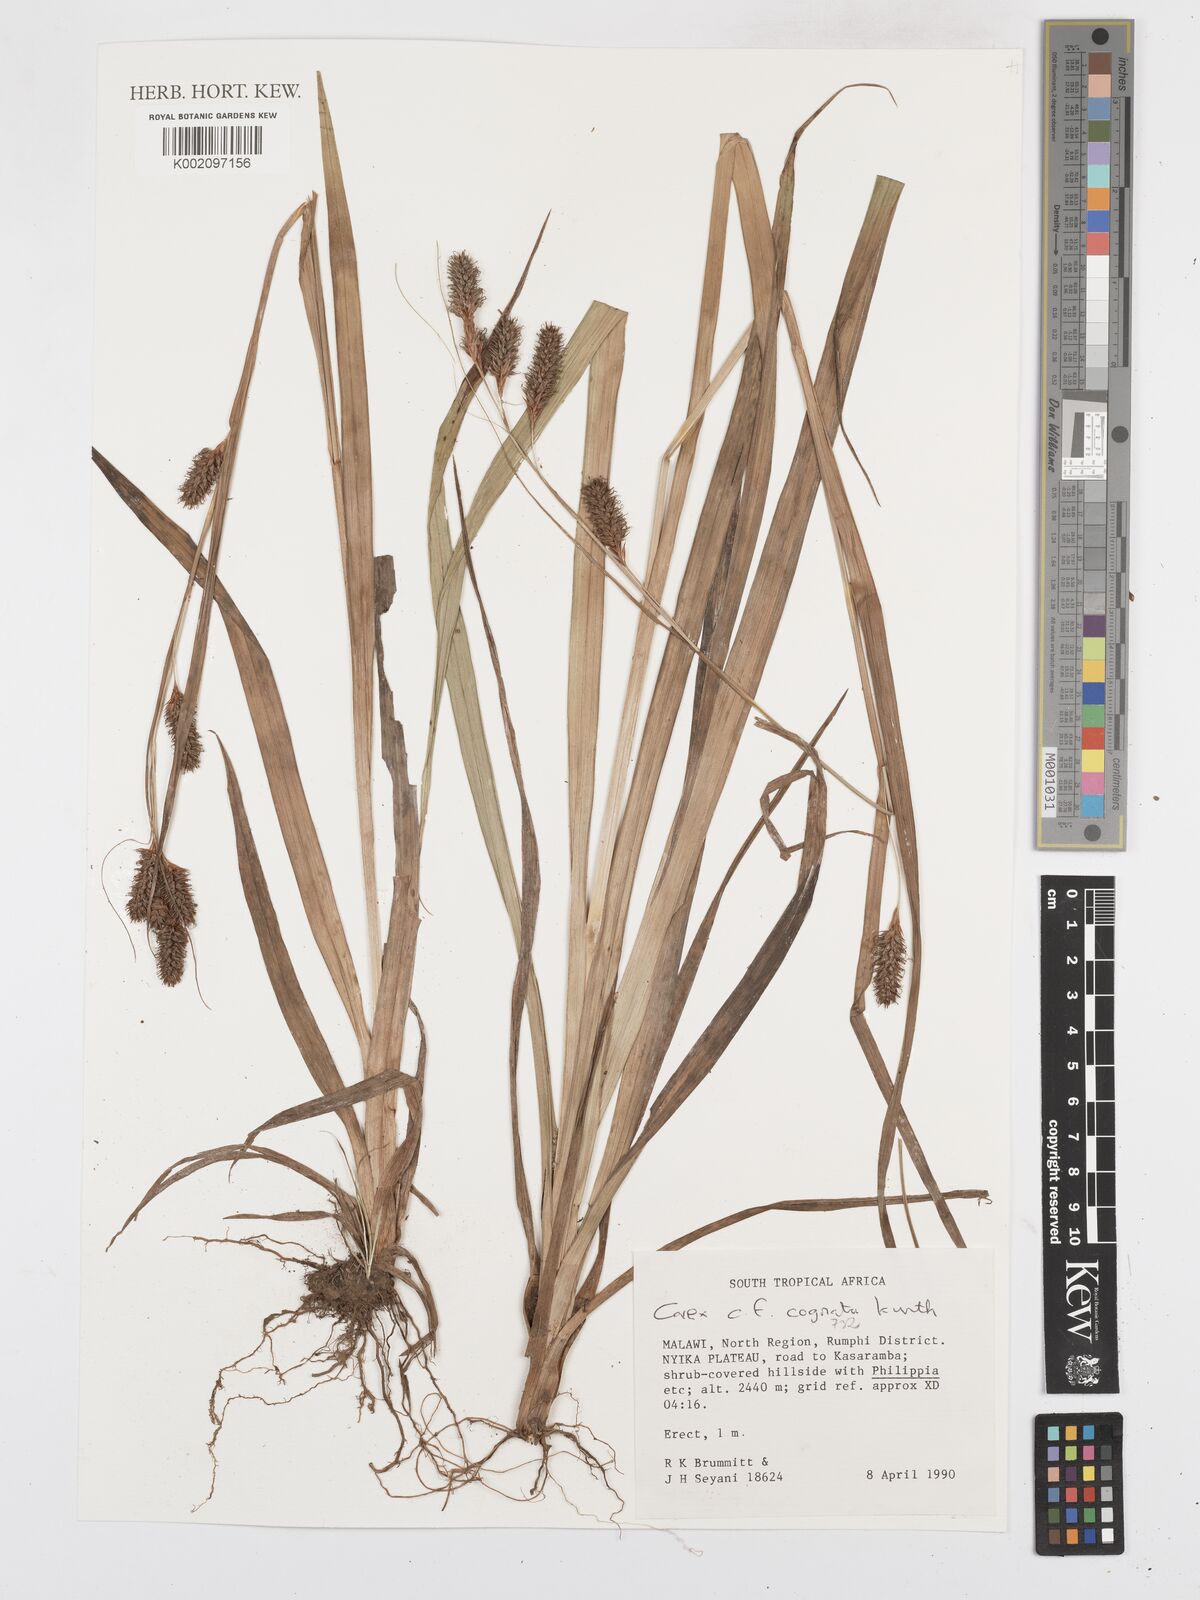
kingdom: Plantae
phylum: Tracheophyta
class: Liliopsida
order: Poales
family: Cyperaceae
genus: Carex
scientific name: Carex cognata
